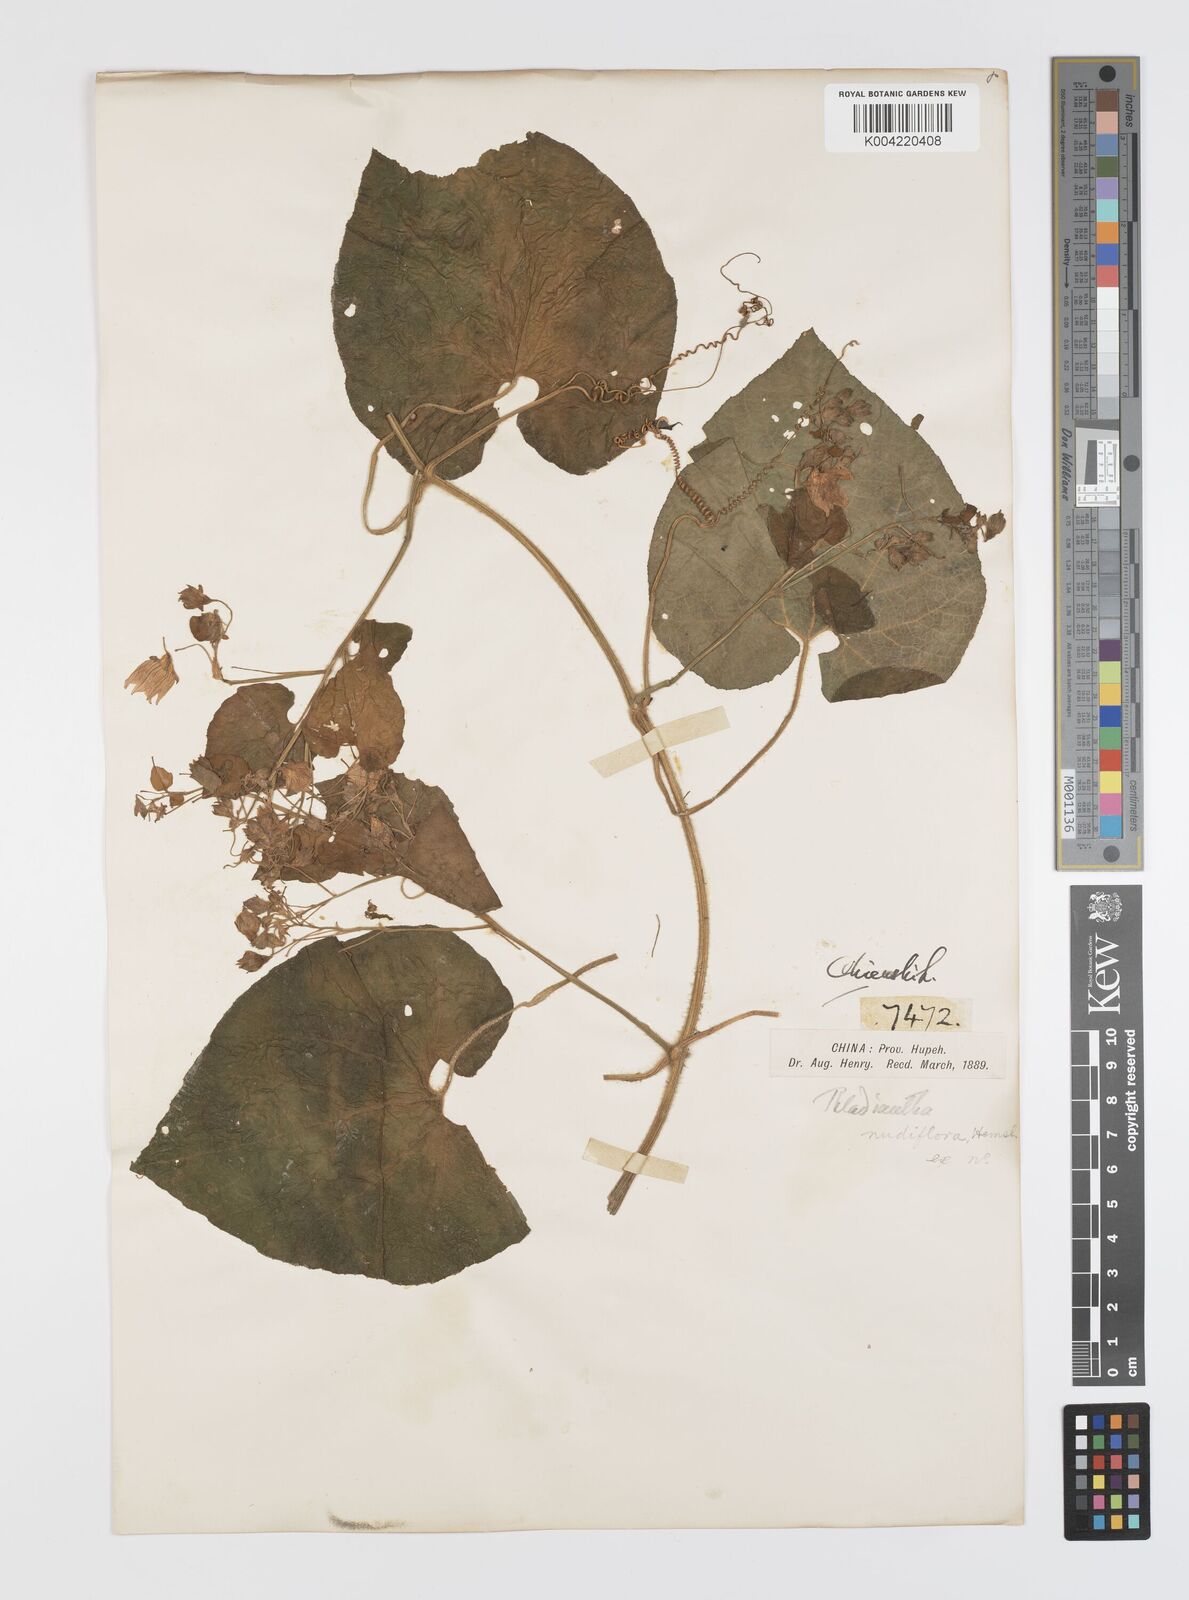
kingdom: Plantae
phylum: Tracheophyta
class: Magnoliopsida
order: Cucurbitales
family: Cucurbitaceae
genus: Thladiantha
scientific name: Thladiantha nudiflora
